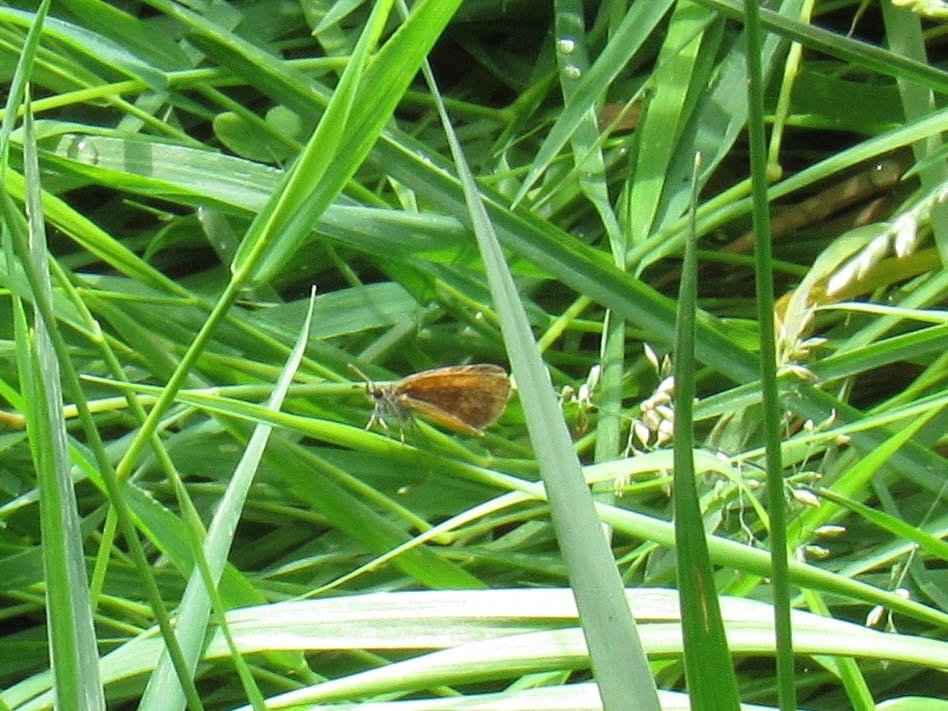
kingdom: Animalia
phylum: Arthropoda
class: Insecta
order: Lepidoptera
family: Hesperiidae
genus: Ancyloxypha
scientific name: Ancyloxypha numitor
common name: Least Skipper
